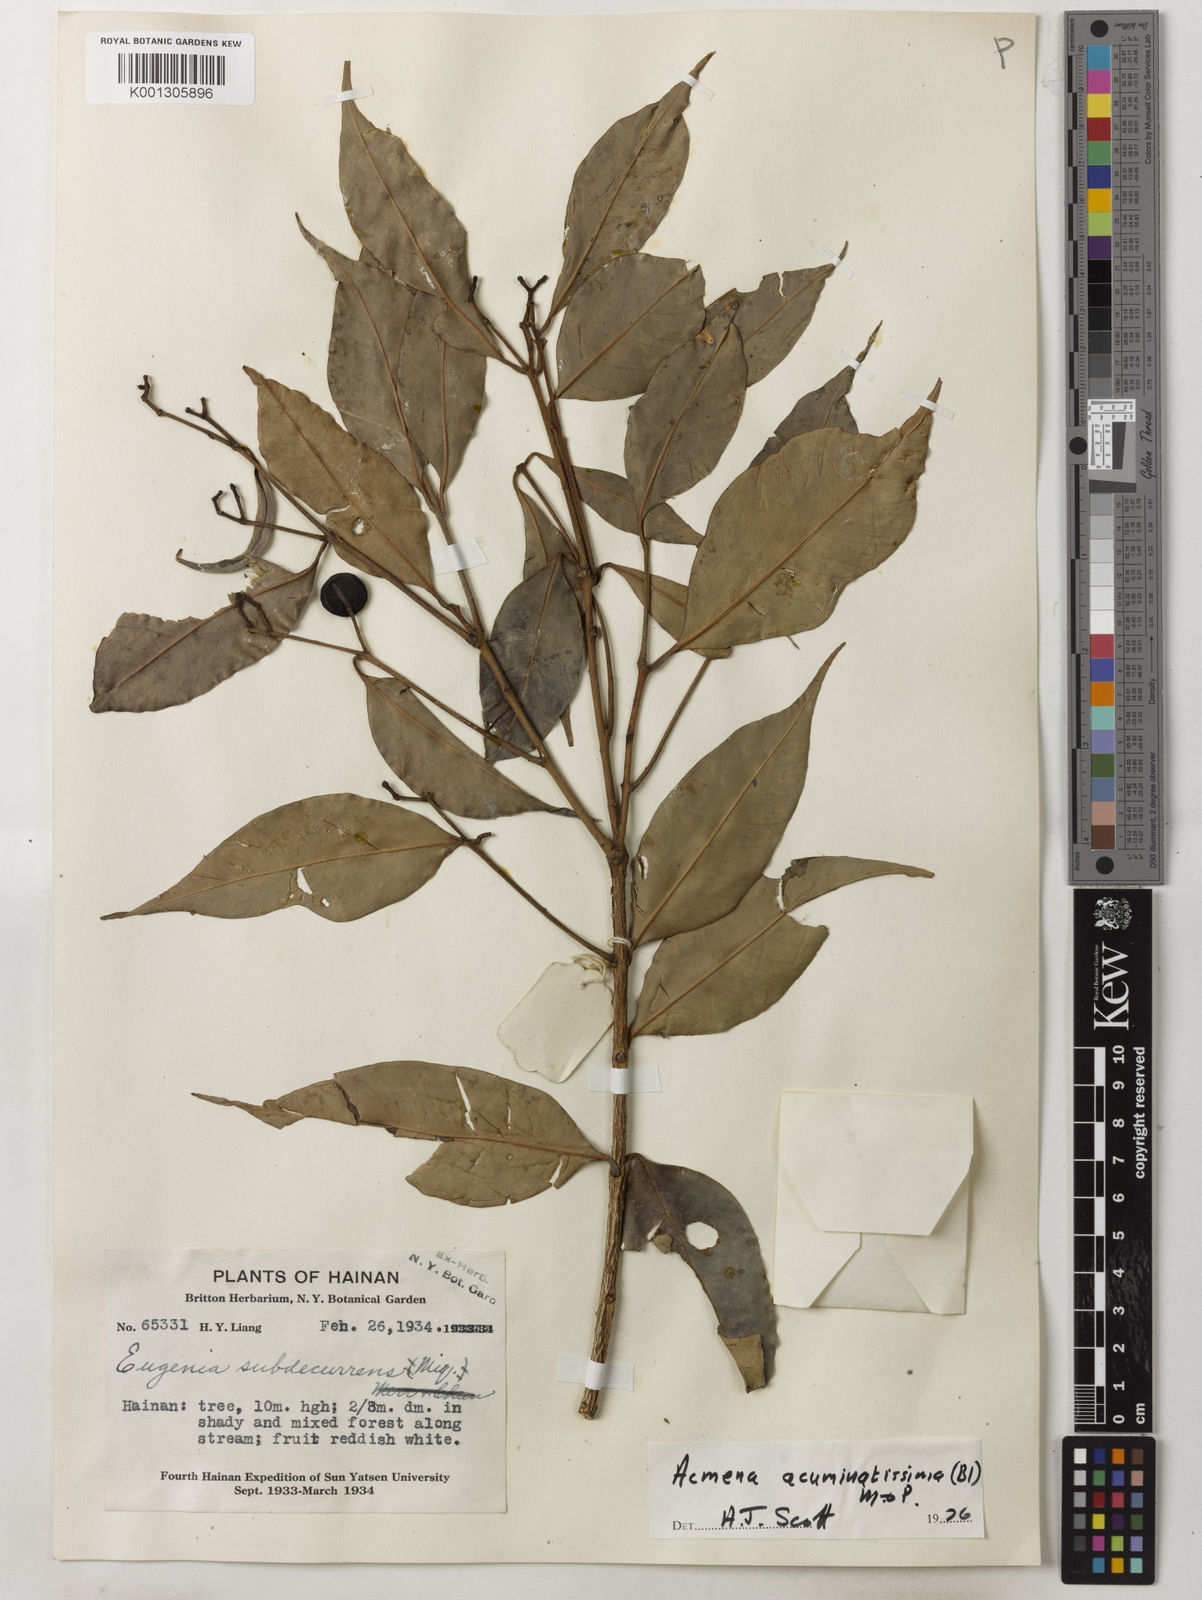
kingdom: Plantae
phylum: Tracheophyta
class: Magnoliopsida
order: Myrtales
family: Myrtaceae
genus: Syzygium
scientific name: Syzygium acuminatissimum
